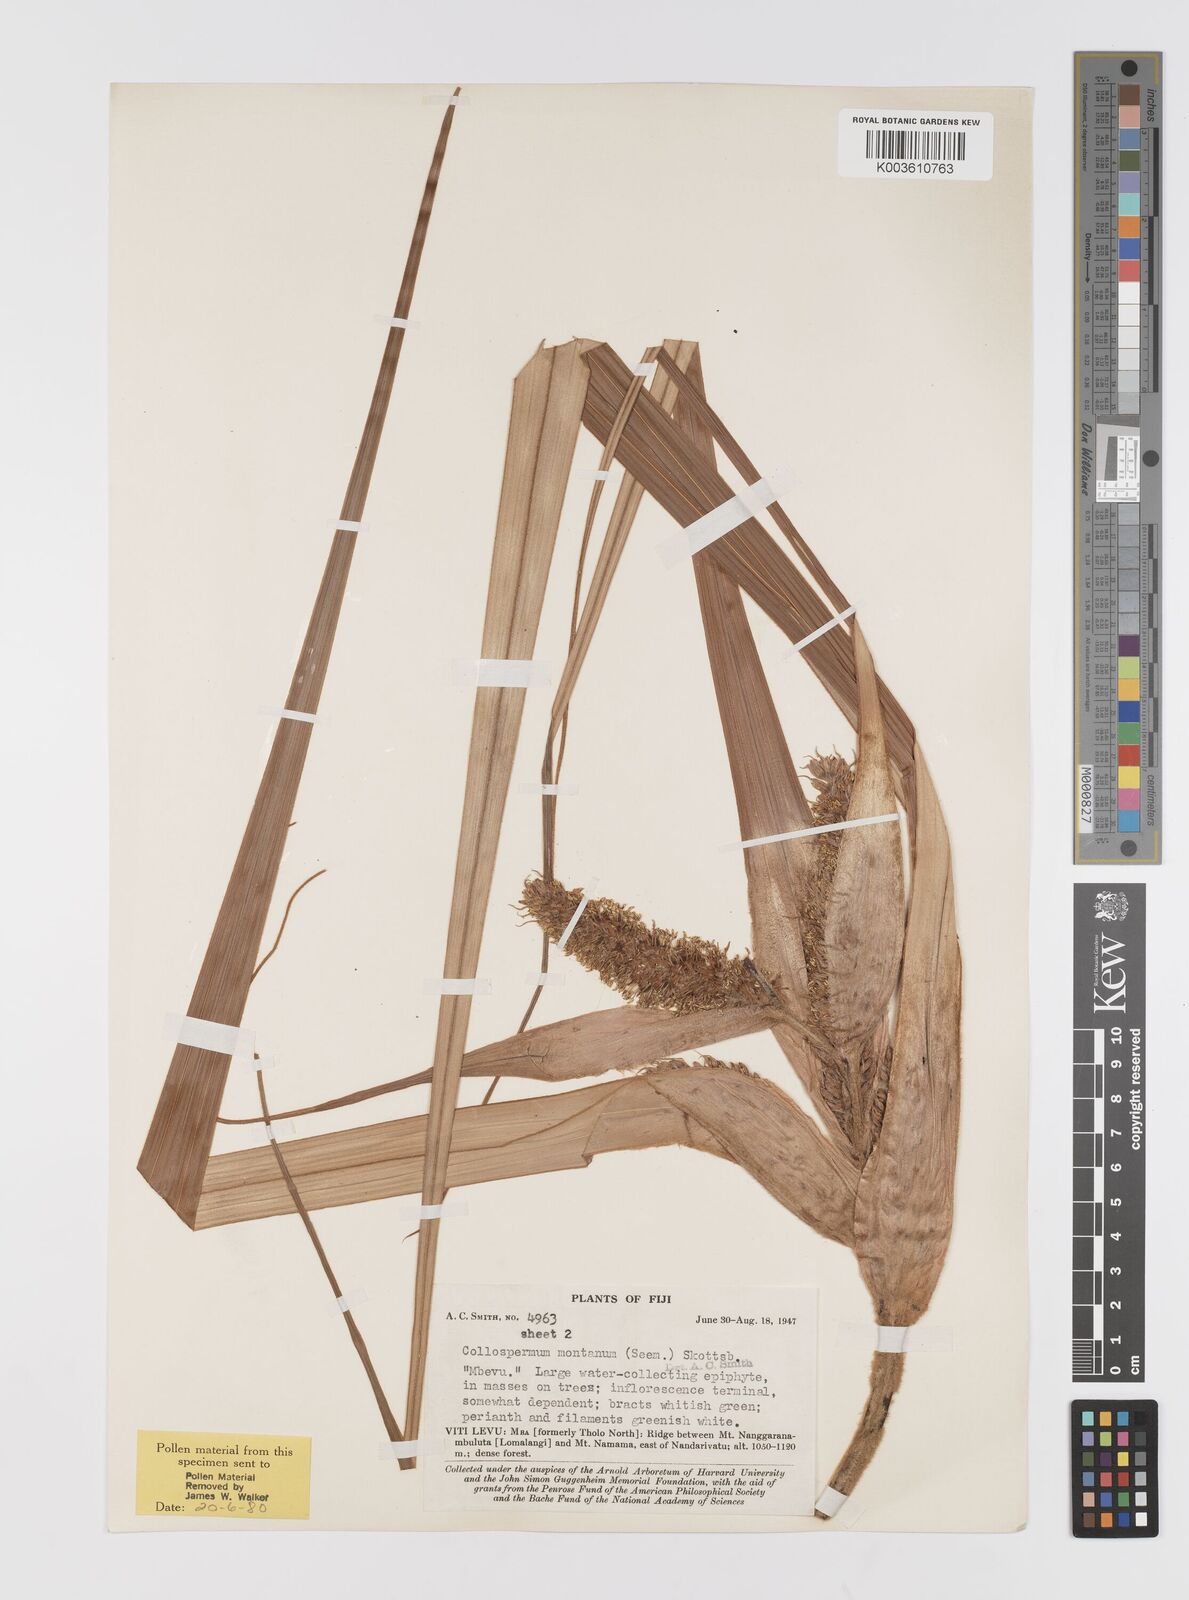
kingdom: Plantae
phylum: Tracheophyta
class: Liliopsida
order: Asparagales
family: Asteliaceae
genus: Astelia
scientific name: Astelia montana
